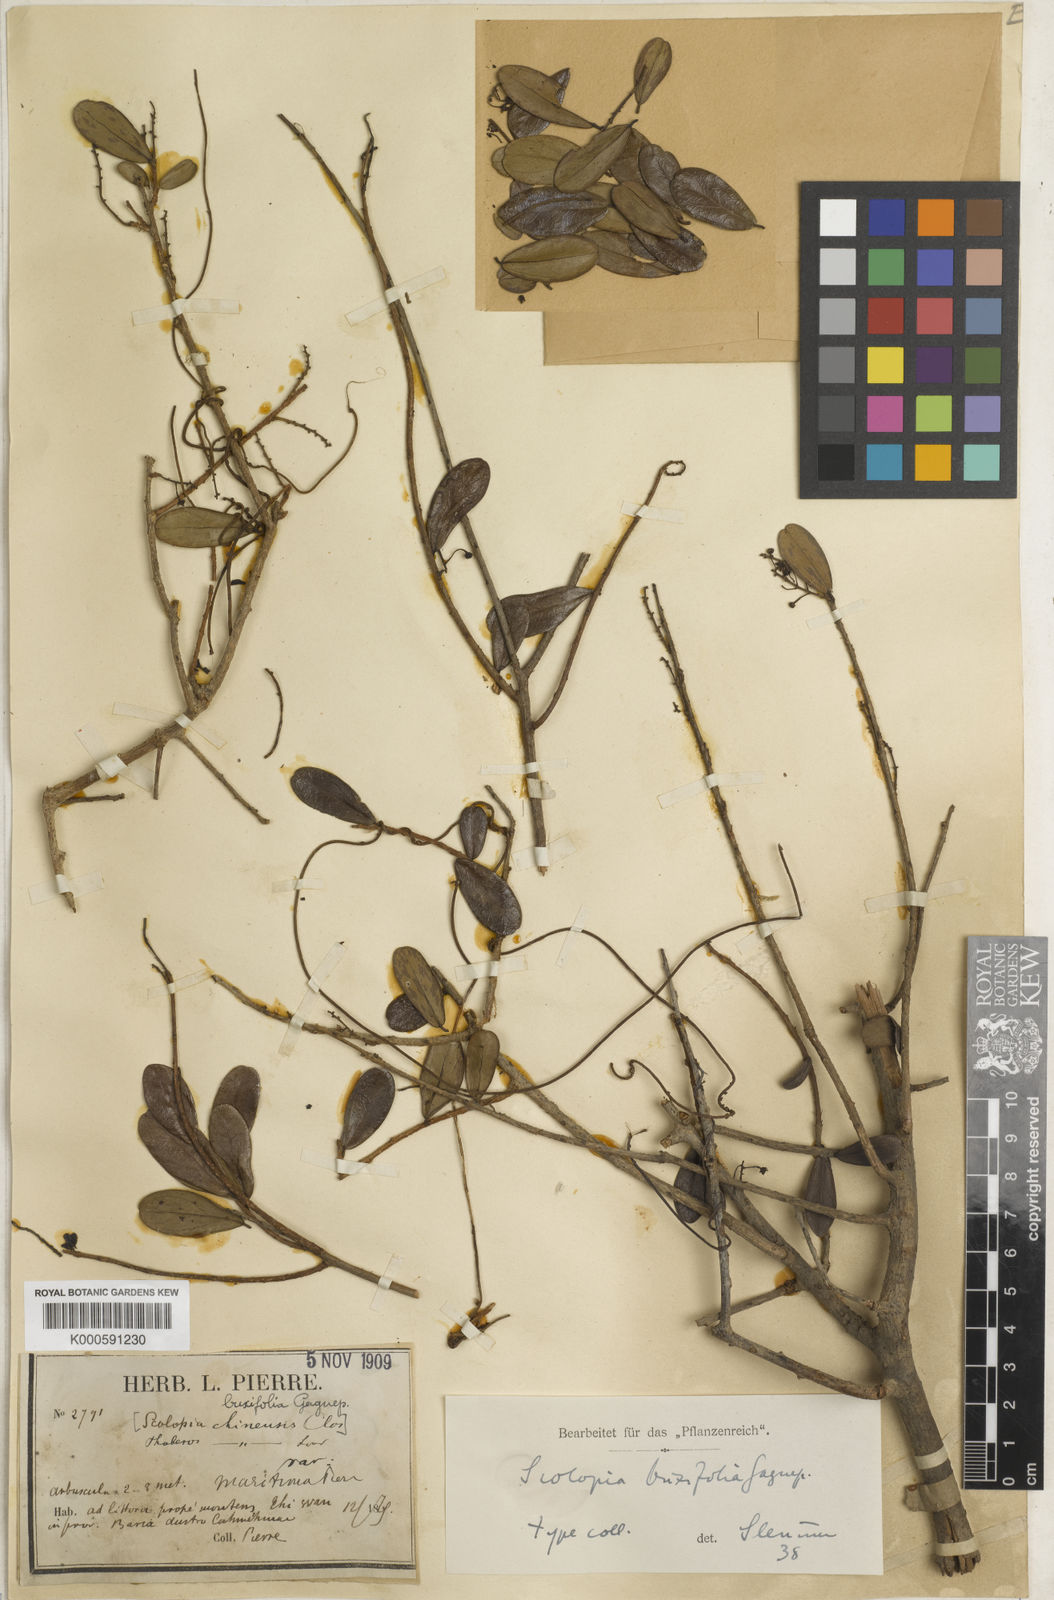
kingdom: Plantae
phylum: Tracheophyta
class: Magnoliopsida
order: Malpighiales
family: Salicaceae
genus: Scolopia
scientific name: Scolopia buxifolia
